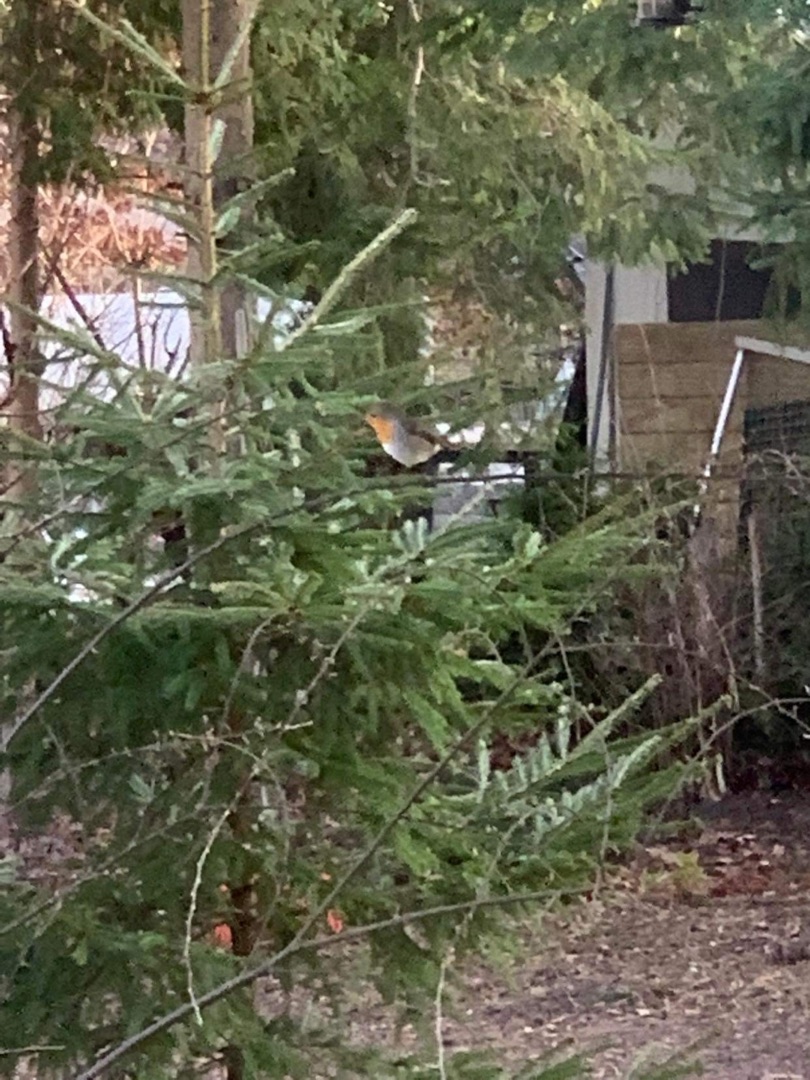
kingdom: Animalia
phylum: Chordata
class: Aves
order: Passeriformes
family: Muscicapidae
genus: Erithacus
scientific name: Erithacus rubecula
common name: Rødhals/rødkælk
